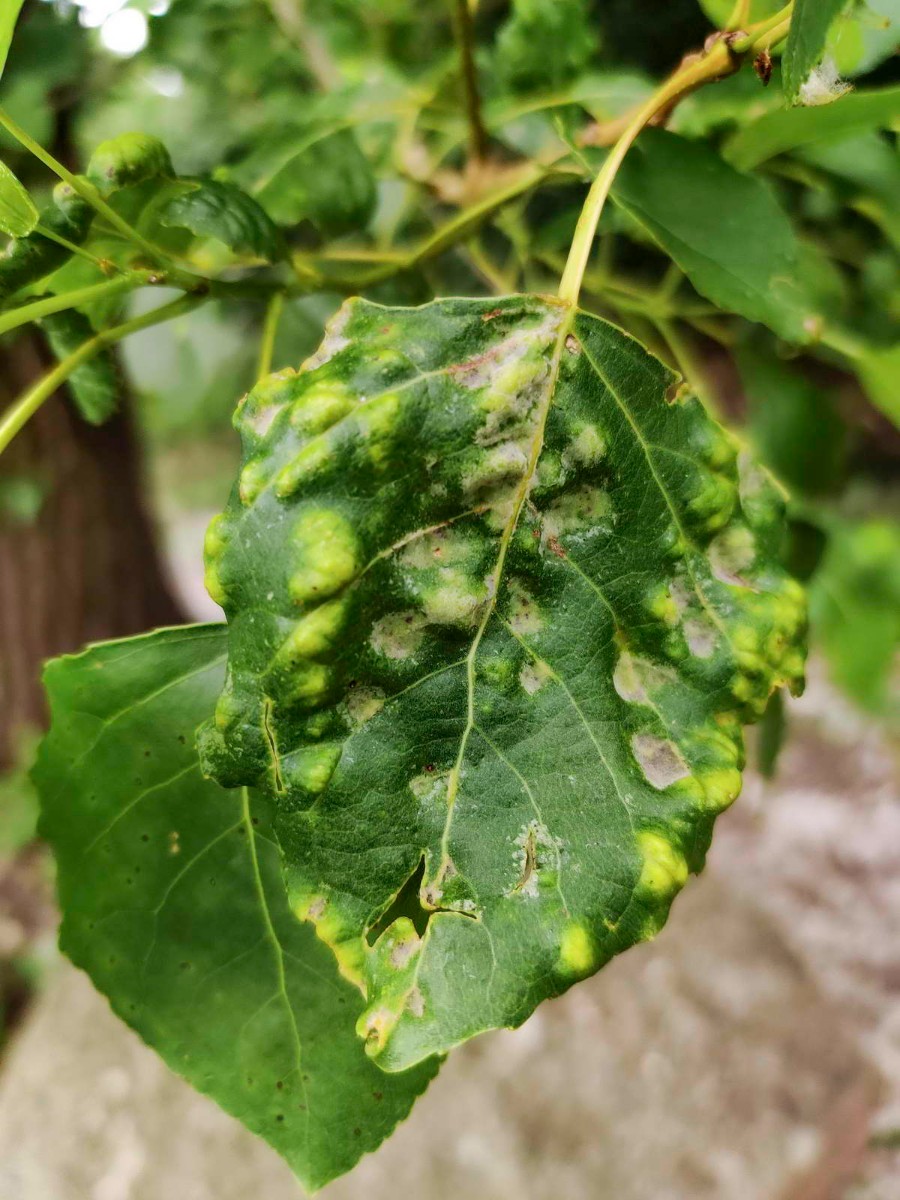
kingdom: Fungi
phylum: Ascomycota
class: Taphrinomycetes
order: Taphrinales
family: Taphrinaceae
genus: Taphrina
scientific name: Taphrina populina
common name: Poplar leaf curl
